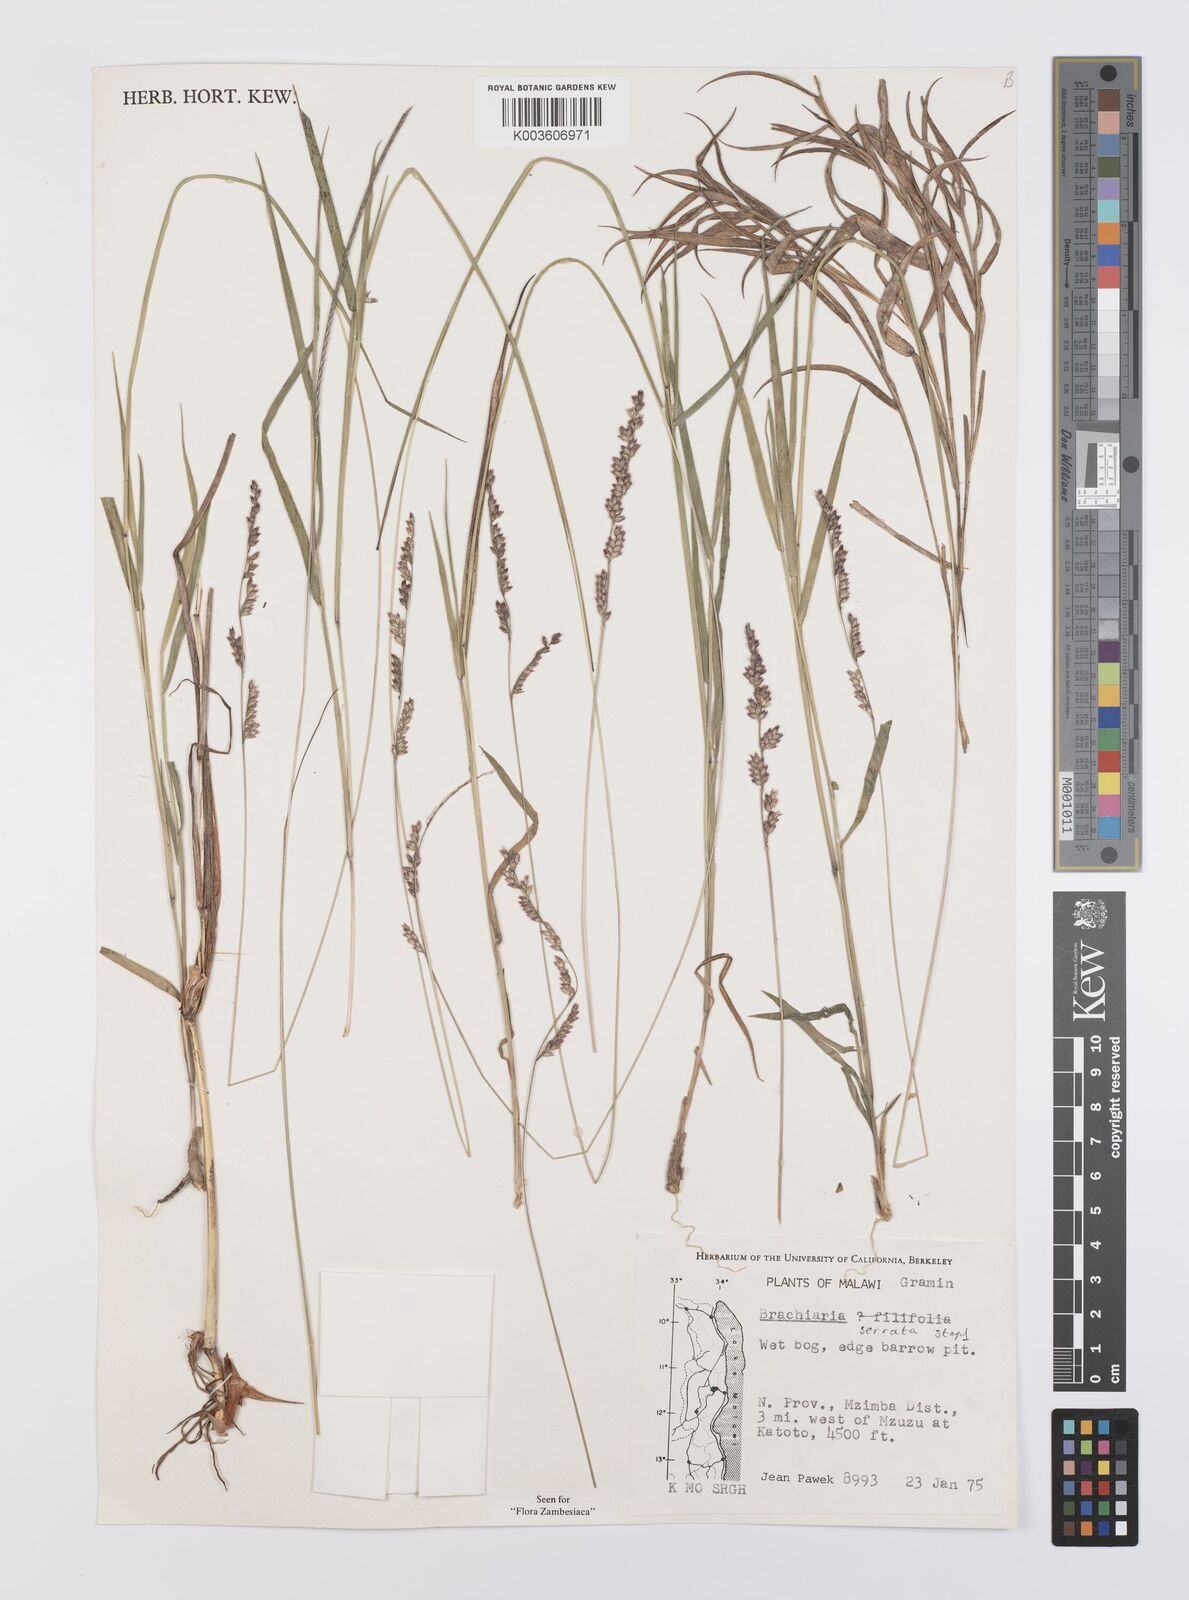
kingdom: Plantae
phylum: Tracheophyta
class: Liliopsida
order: Poales
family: Poaceae
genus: Urochloa
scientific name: Urochloa serrata
